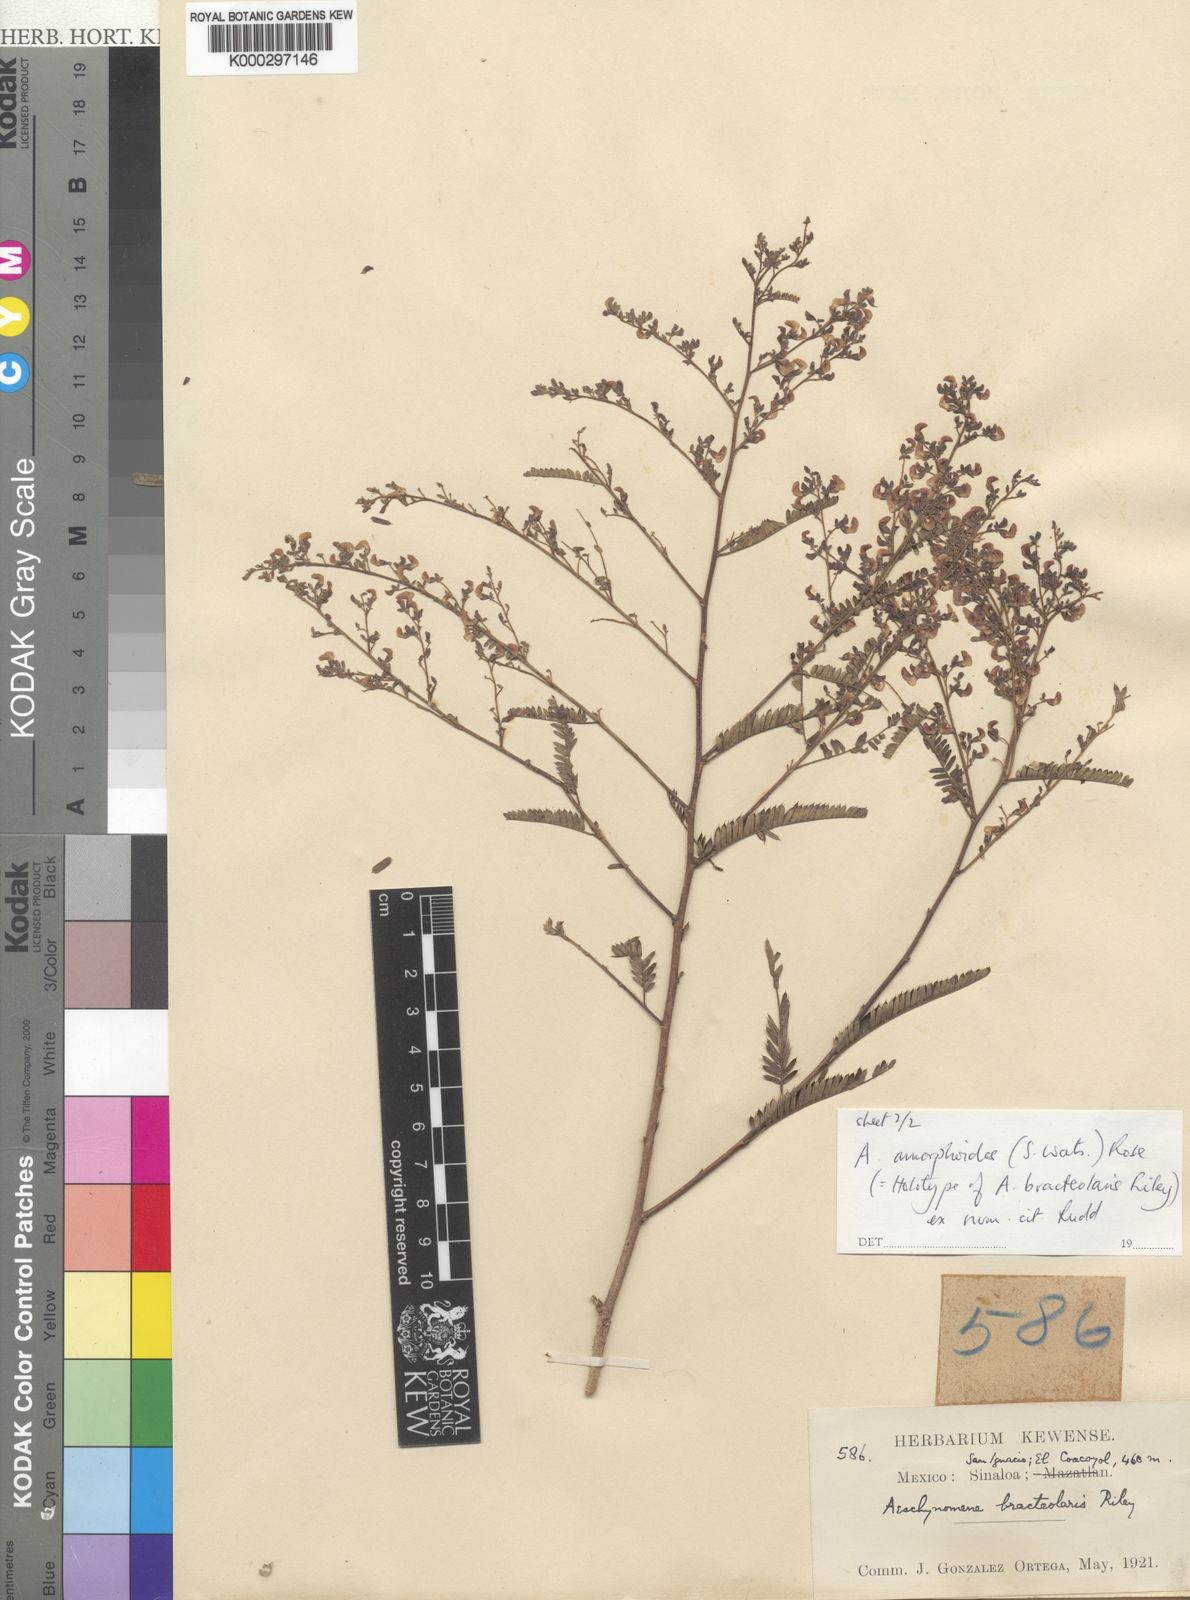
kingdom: Plantae
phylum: Tracheophyta
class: Magnoliopsida
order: Fabales
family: Fabaceae
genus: Ctenodon
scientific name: Ctenodon mucronulatus
